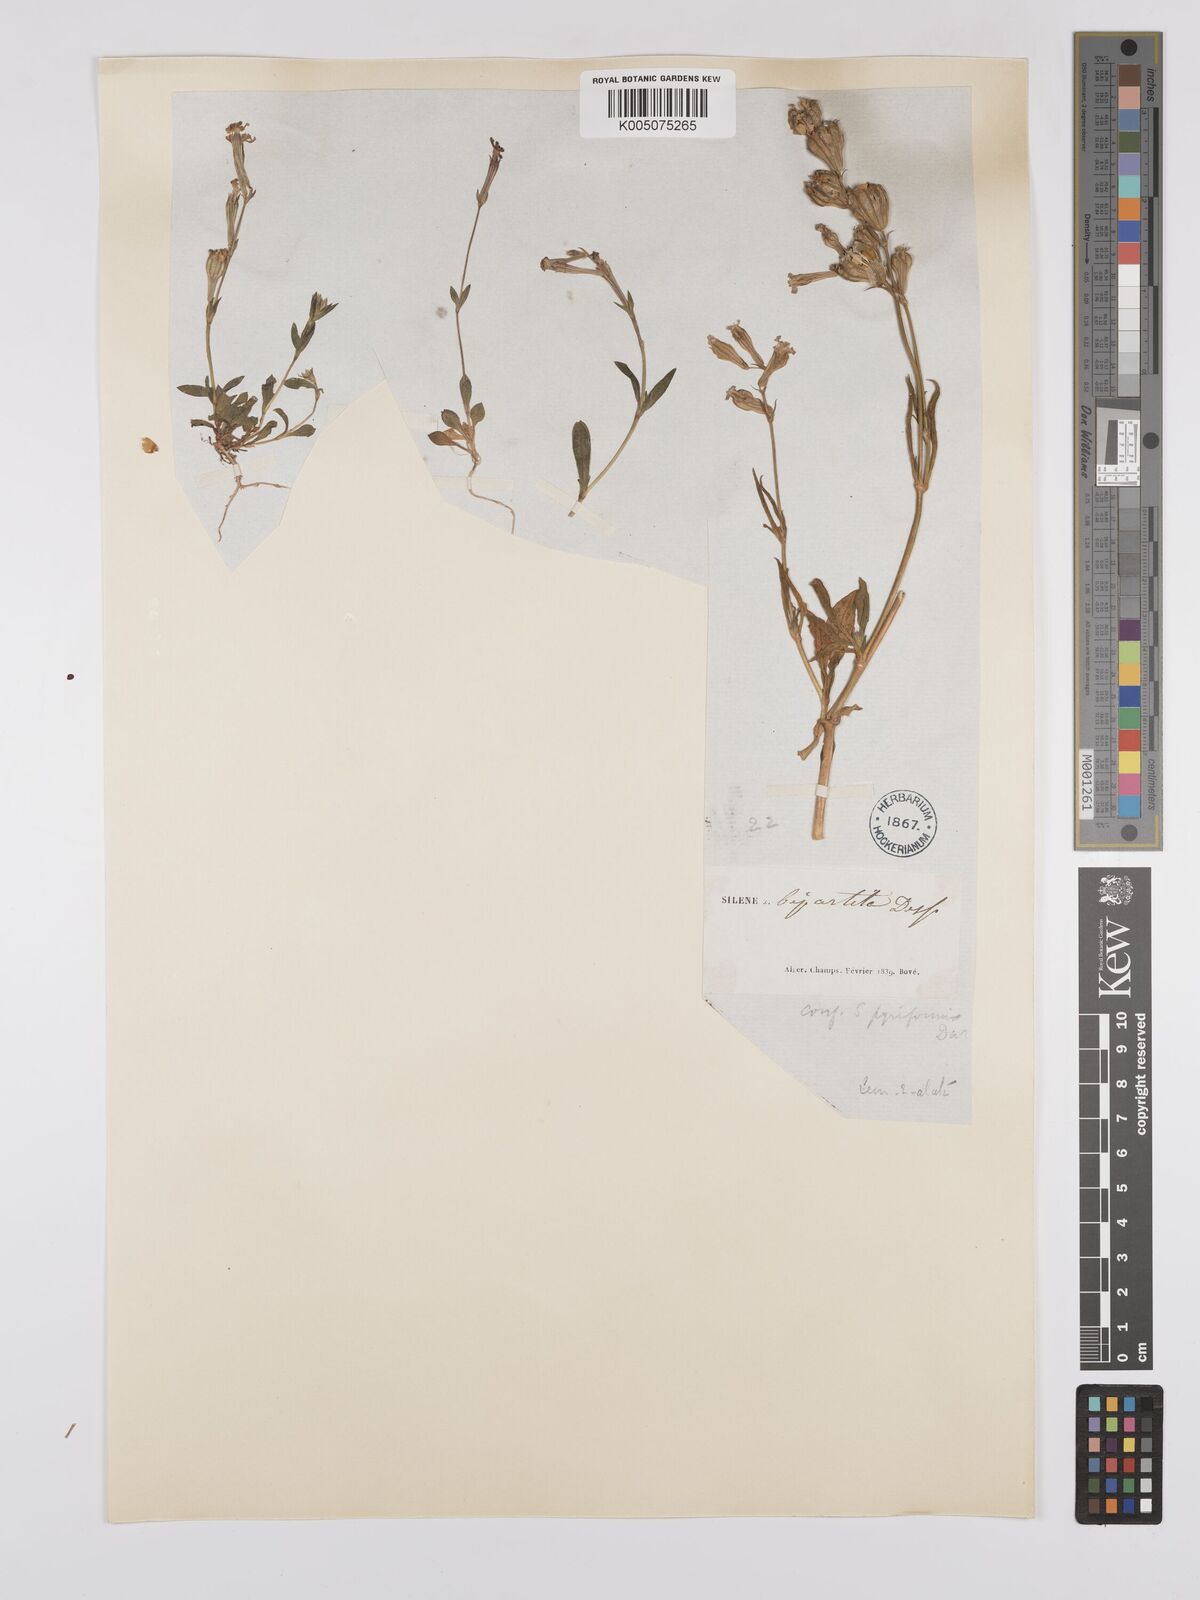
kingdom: Plantae
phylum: Tracheophyta
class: Magnoliopsida
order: Caryophyllales
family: Caryophyllaceae
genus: Silene
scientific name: Silene secundiflora
